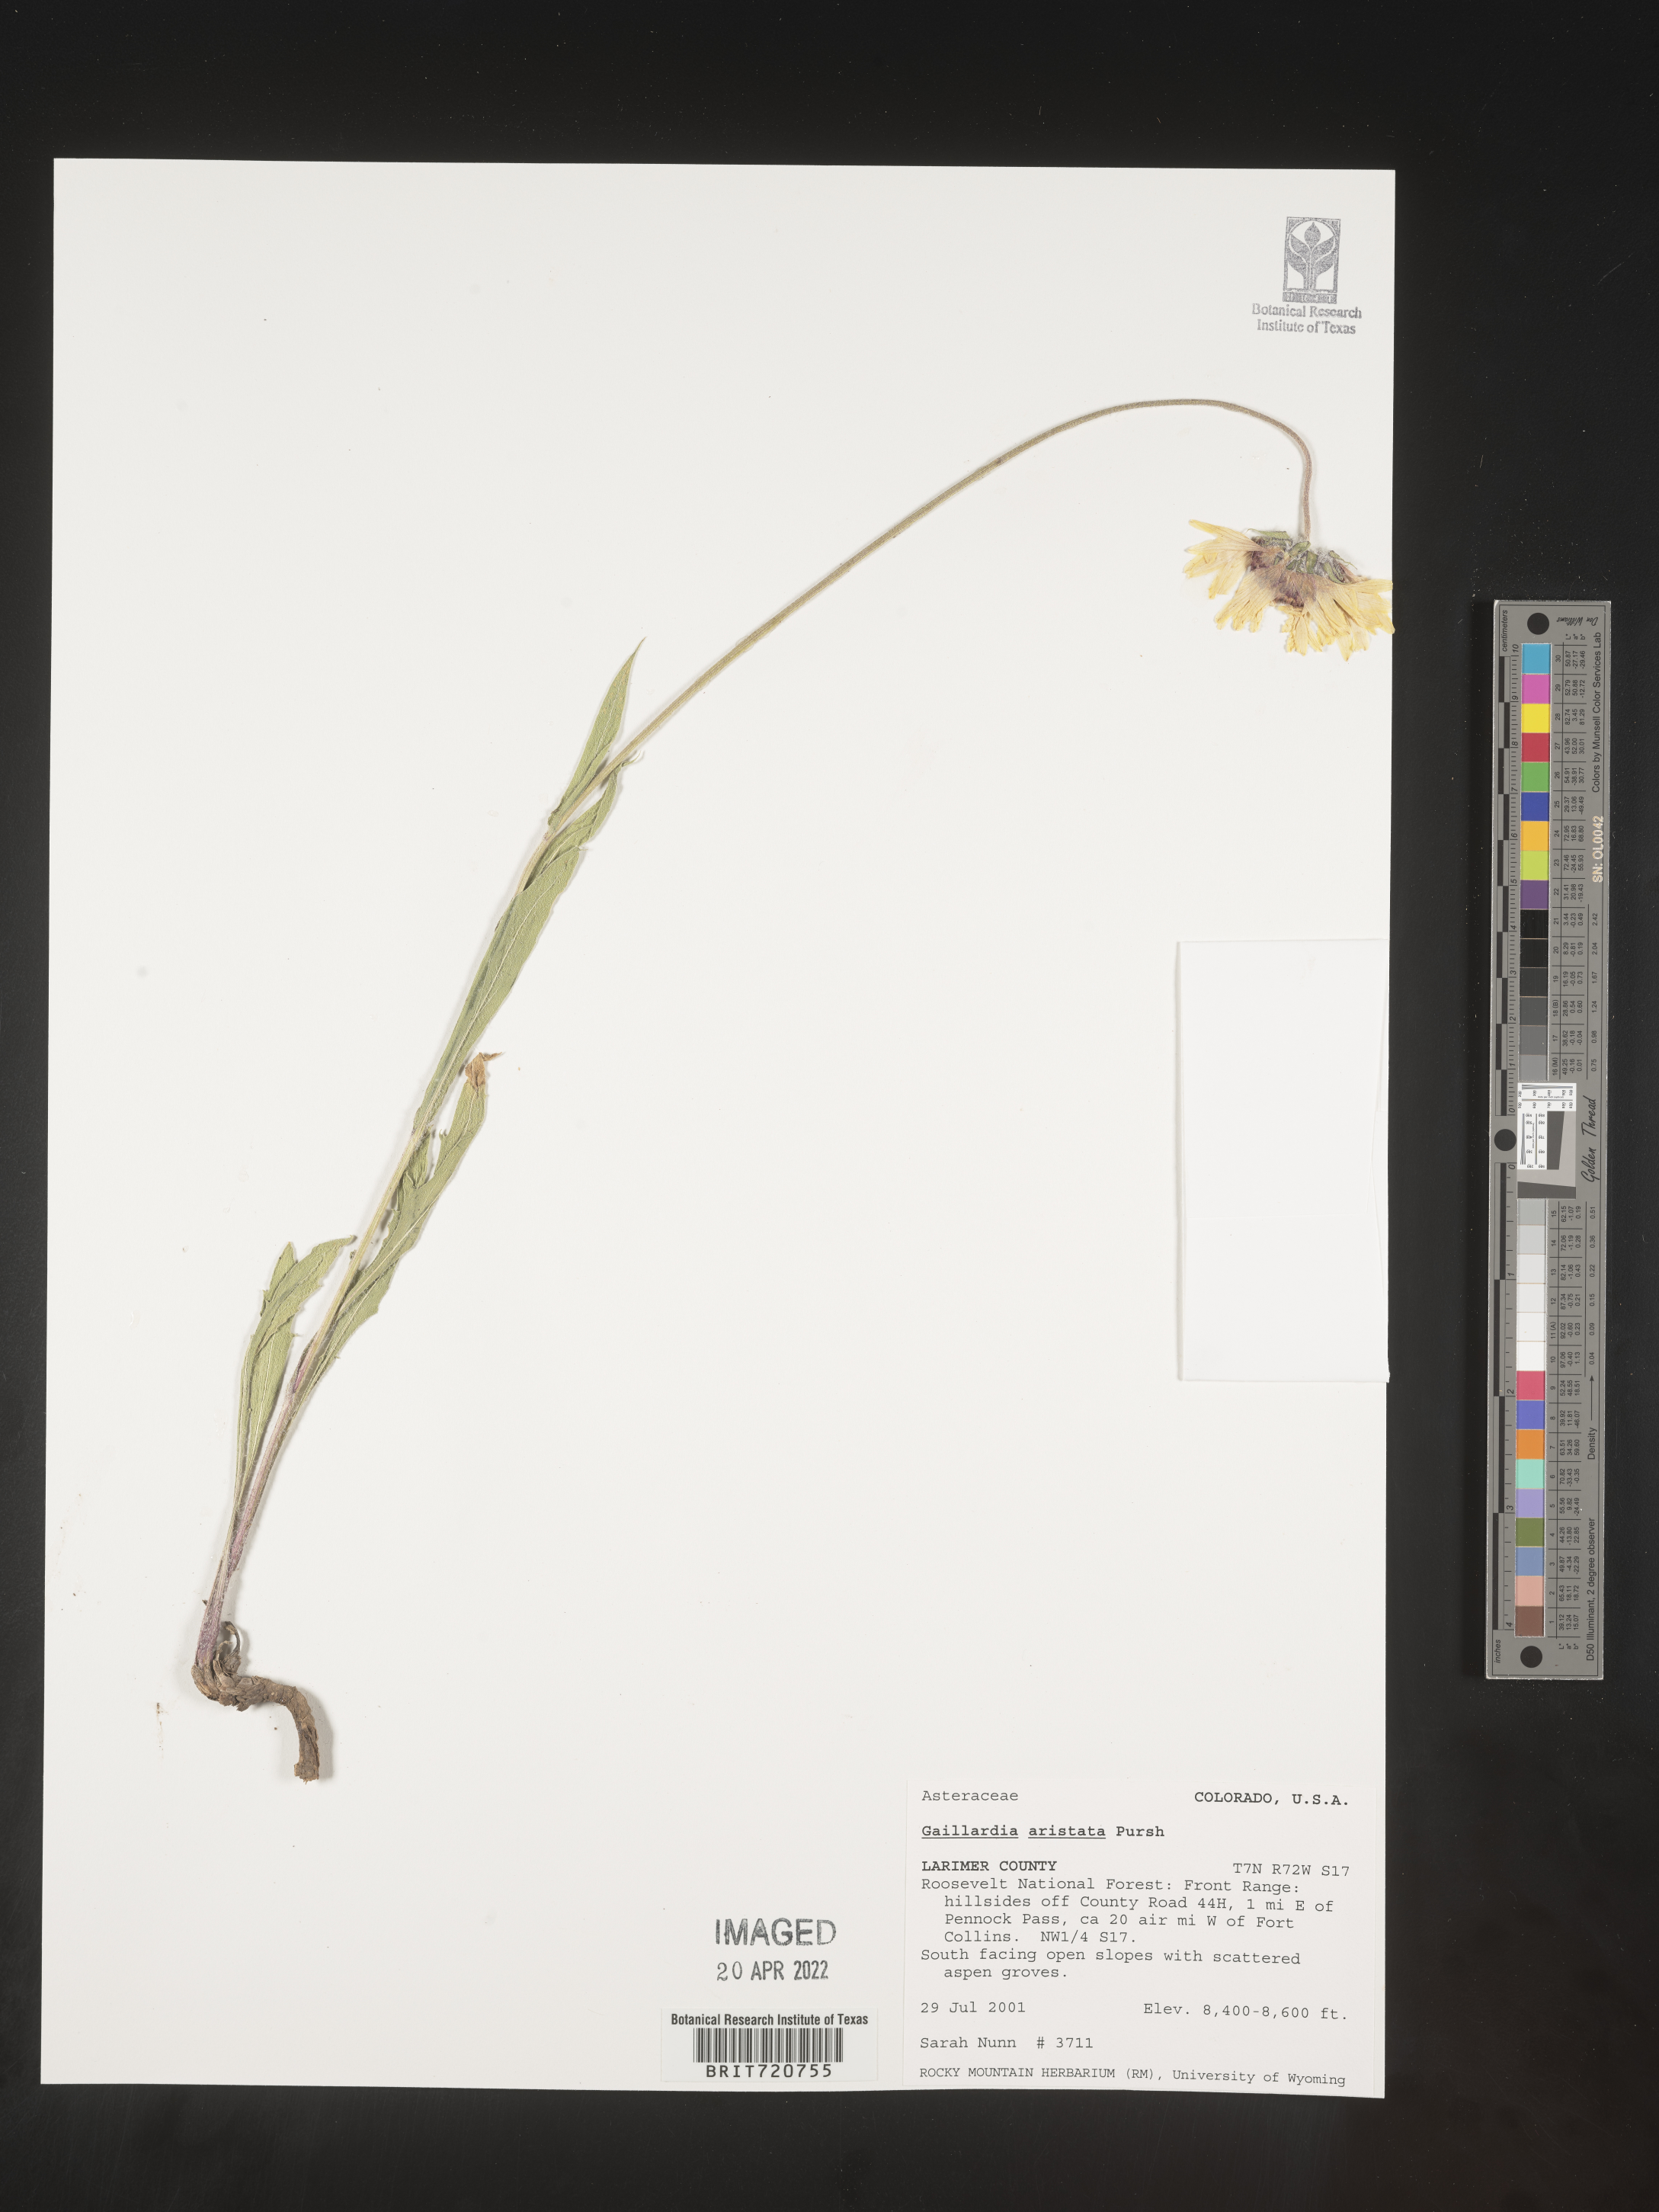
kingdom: Plantae
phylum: Tracheophyta
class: Magnoliopsida
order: Asterales
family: Asteraceae
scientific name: Asteraceae
